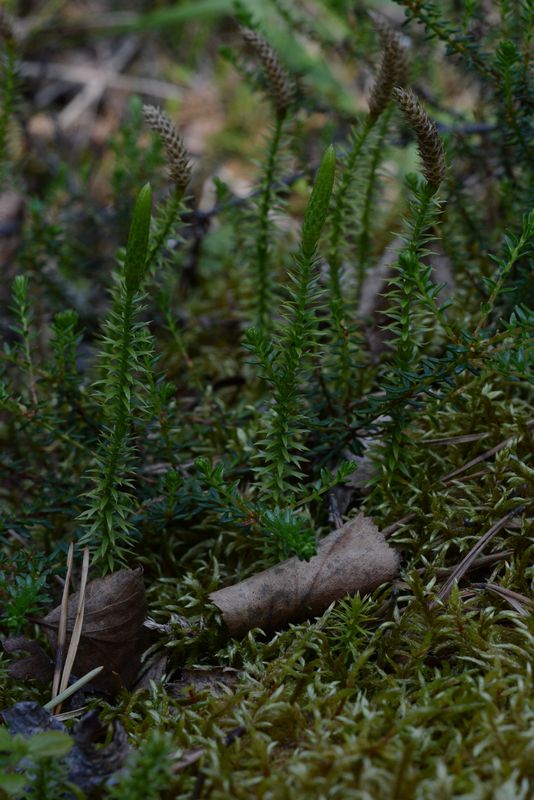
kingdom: Plantae
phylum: Tracheophyta
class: Lycopodiopsida
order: Lycopodiales
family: Lycopodiaceae
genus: Spinulum
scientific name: Spinulum annotinum
